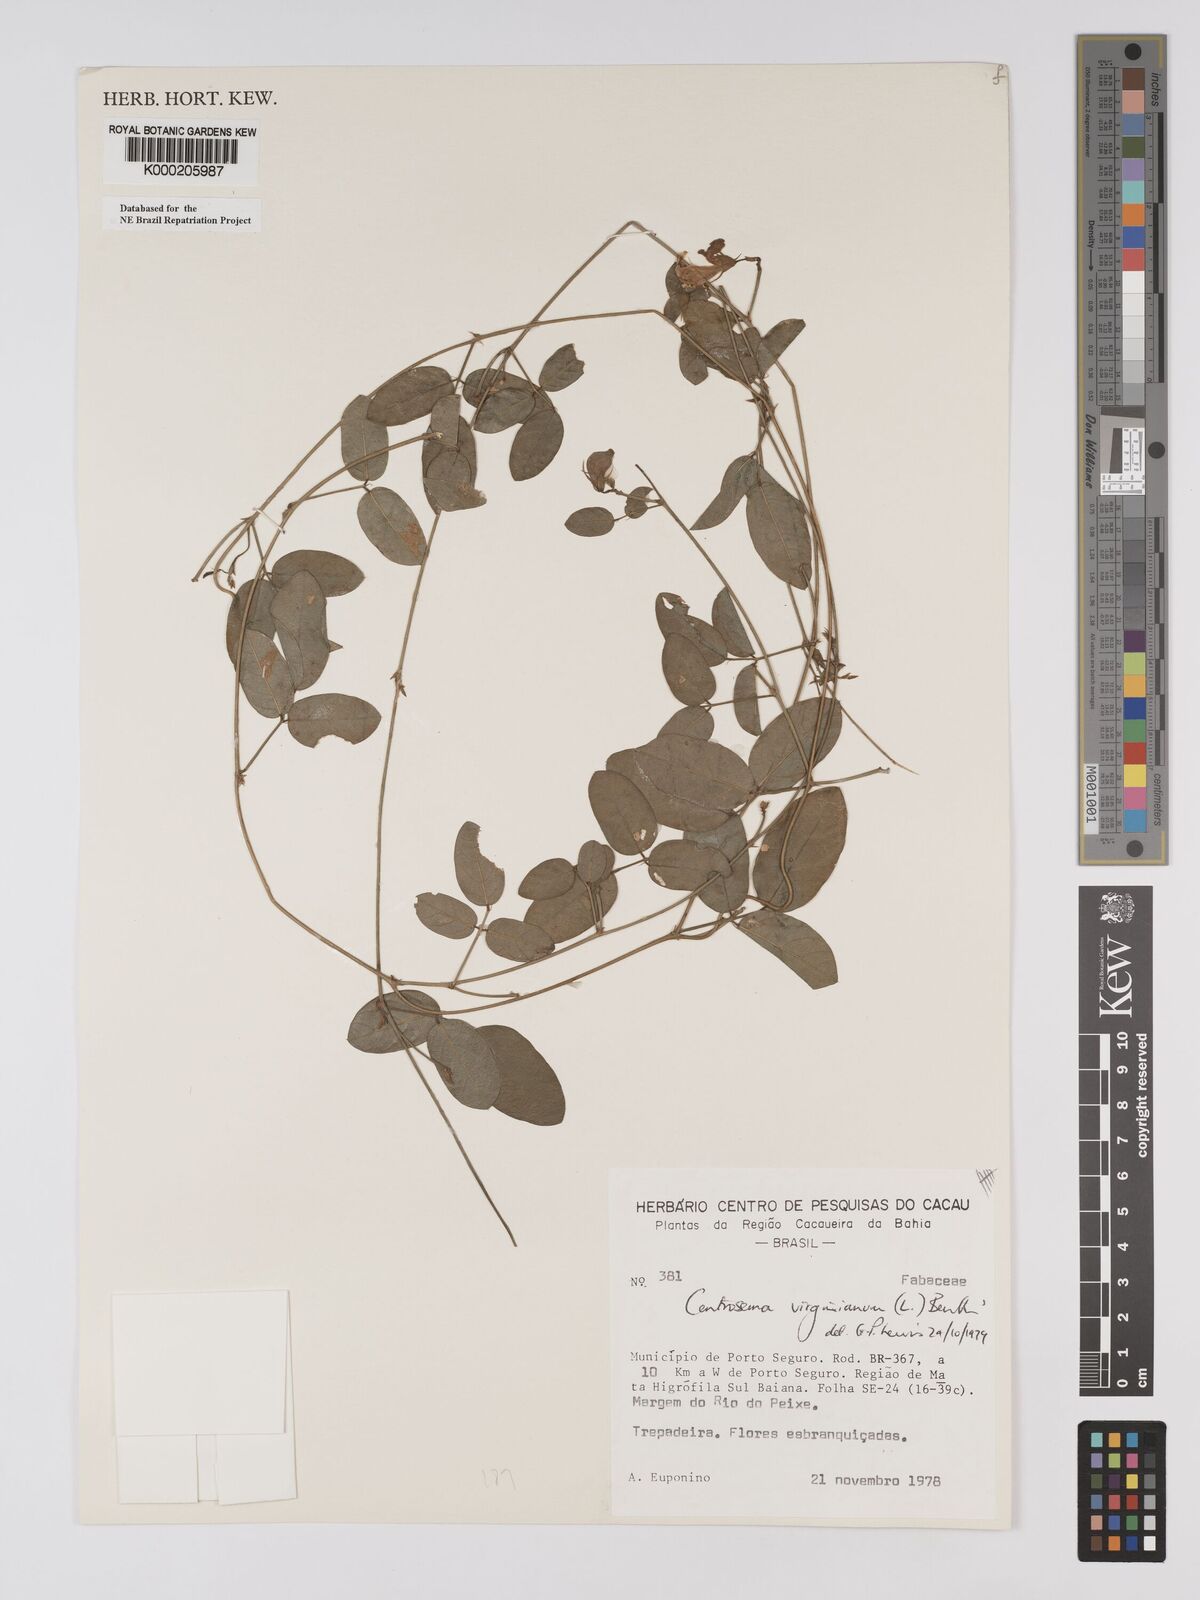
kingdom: Plantae
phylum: Tracheophyta
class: Magnoliopsida
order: Fabales
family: Fabaceae
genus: Centrosema
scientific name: Centrosema virginianum
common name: Butterfly-pea
